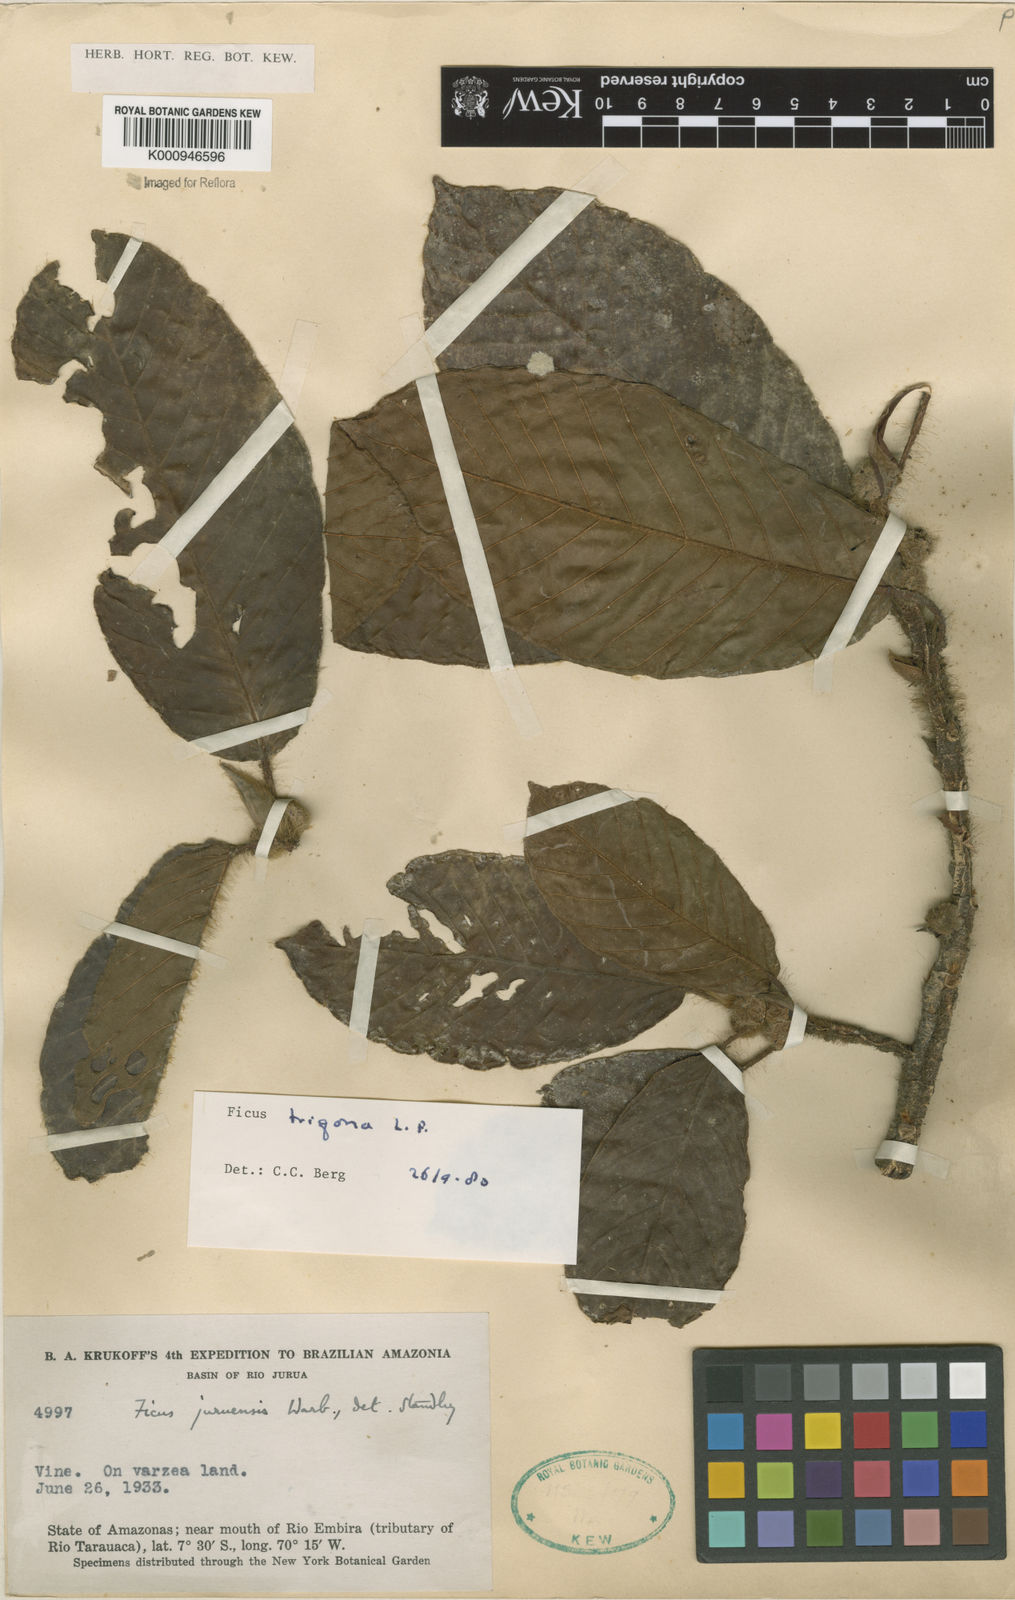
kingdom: Plantae
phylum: Tracheophyta
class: Magnoliopsida
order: Rosales
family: Moraceae
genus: Ficus
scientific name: Ficus trigona
